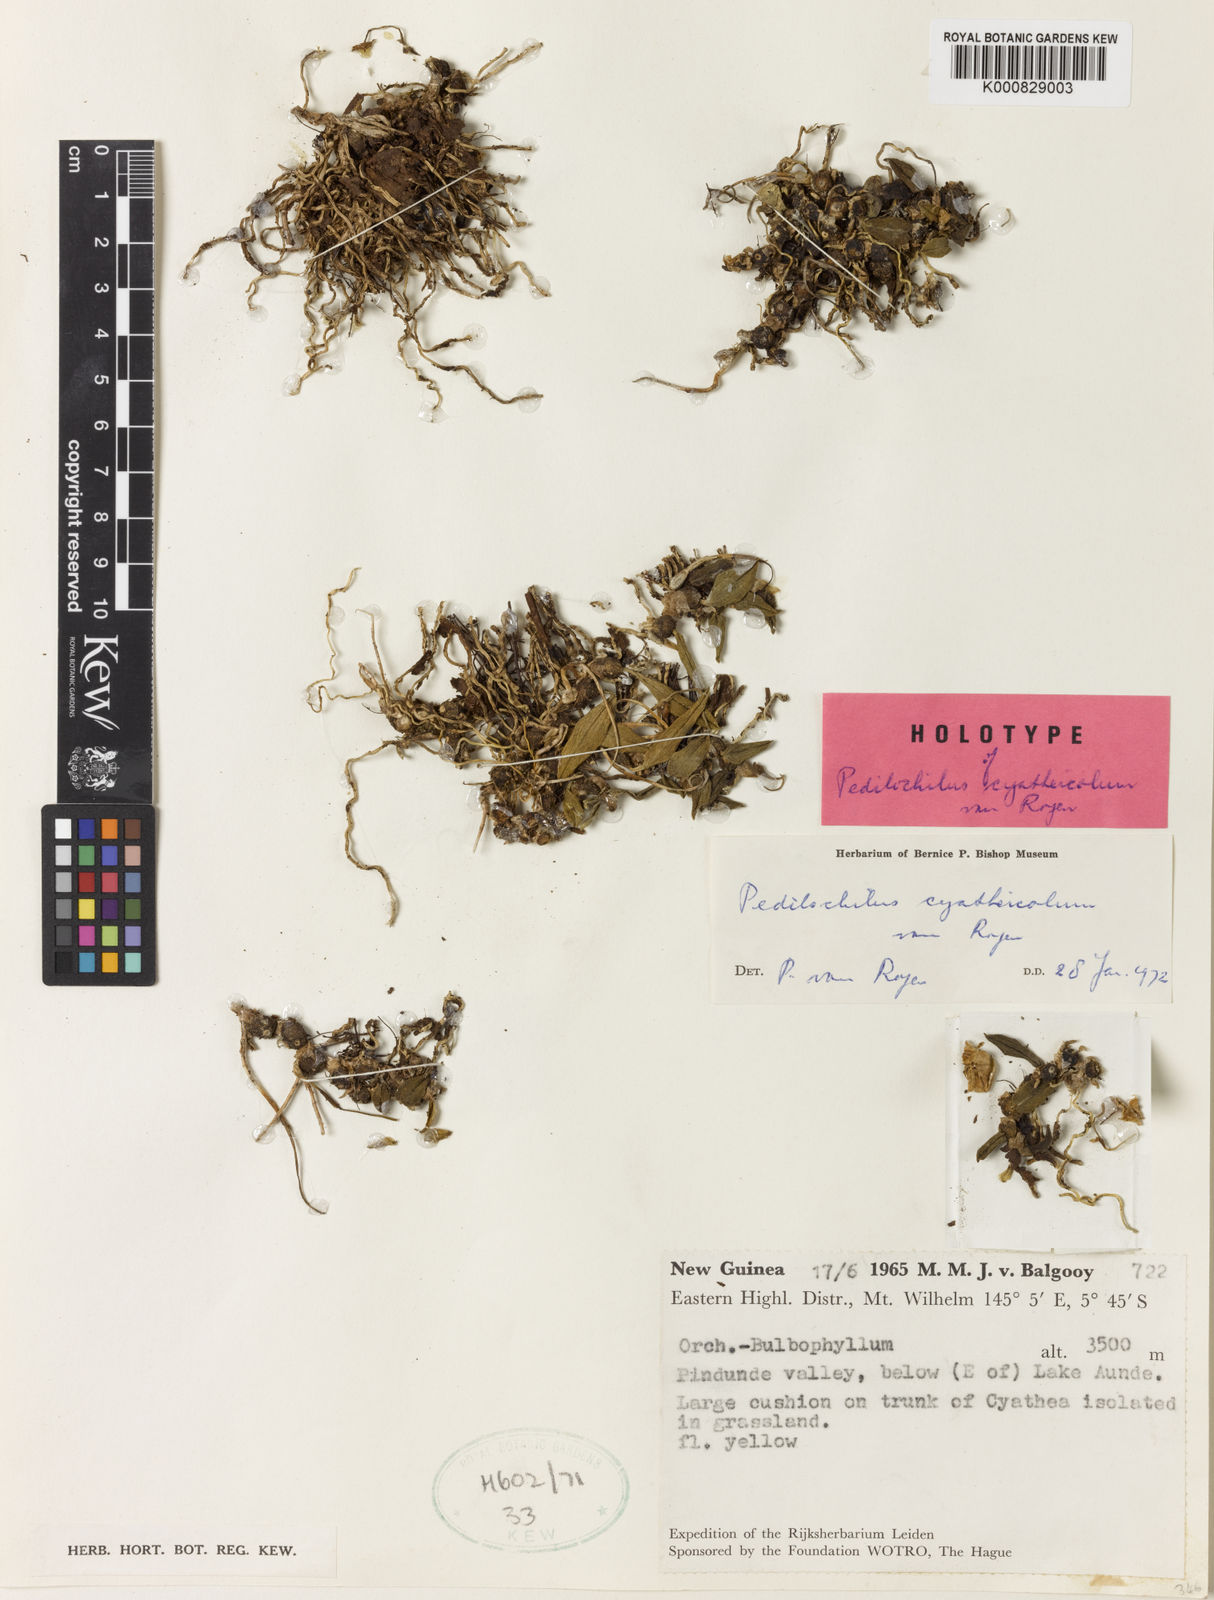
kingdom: Plantae
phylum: Tracheophyta
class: Liliopsida
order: Asparagales
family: Orchidaceae
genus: Bulbophyllum
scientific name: Bulbophyllum cyatheicola
